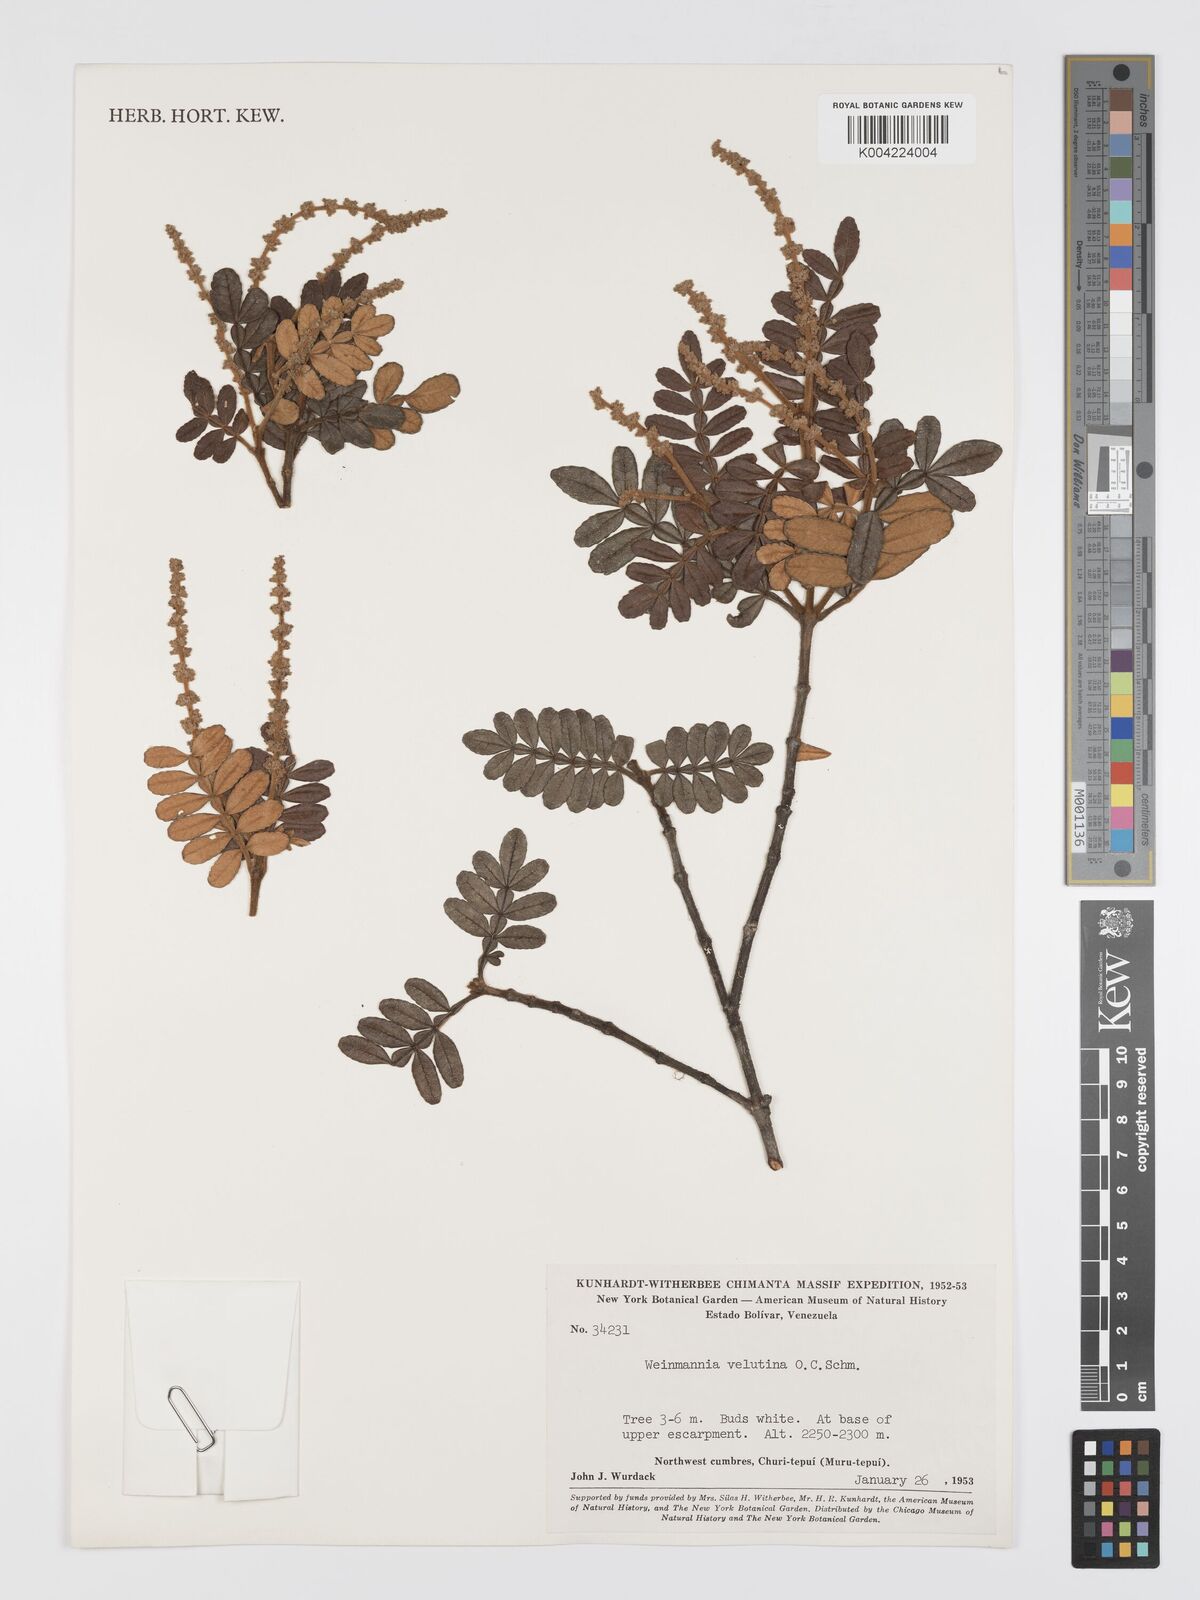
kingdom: Plantae
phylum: Tracheophyta
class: Magnoliopsida
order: Oxalidales
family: Cunoniaceae
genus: Weinmannia
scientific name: Weinmannia velutina
